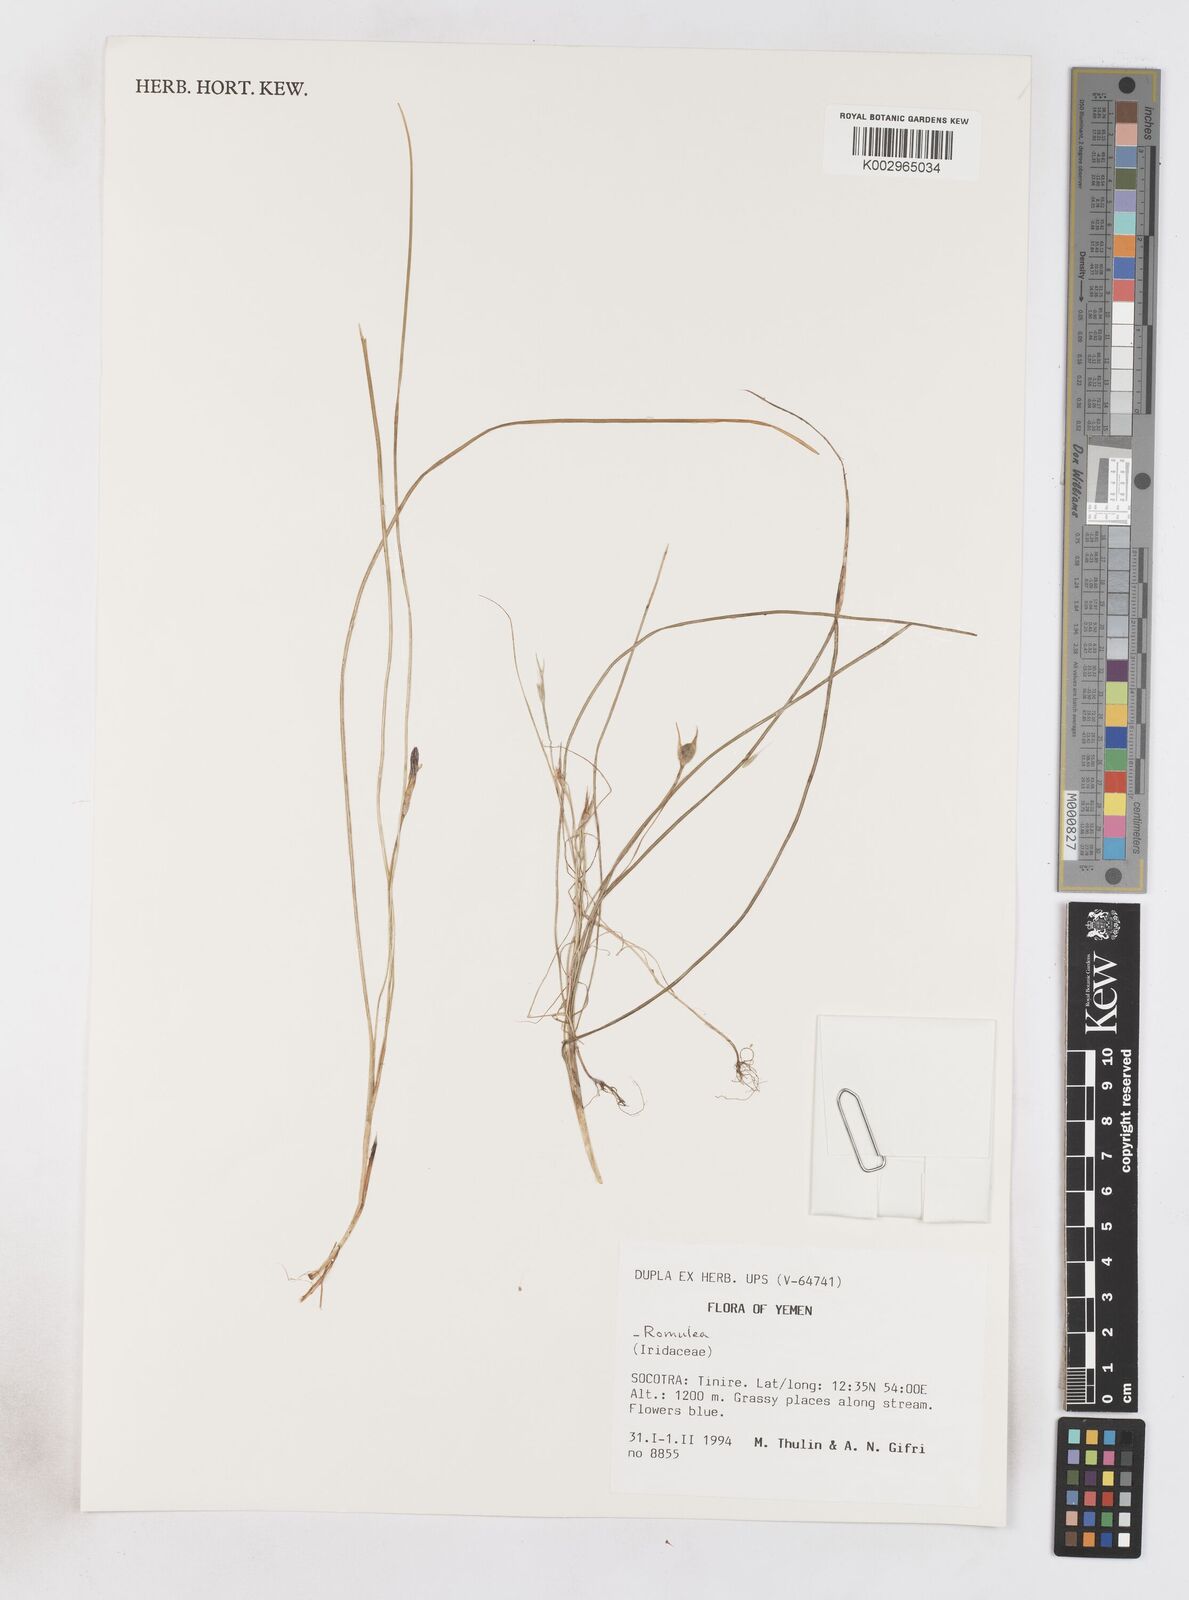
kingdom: Plantae
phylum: Tracheophyta
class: Liliopsida
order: Asparagales
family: Iridaceae
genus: Romulea
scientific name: Romulea
